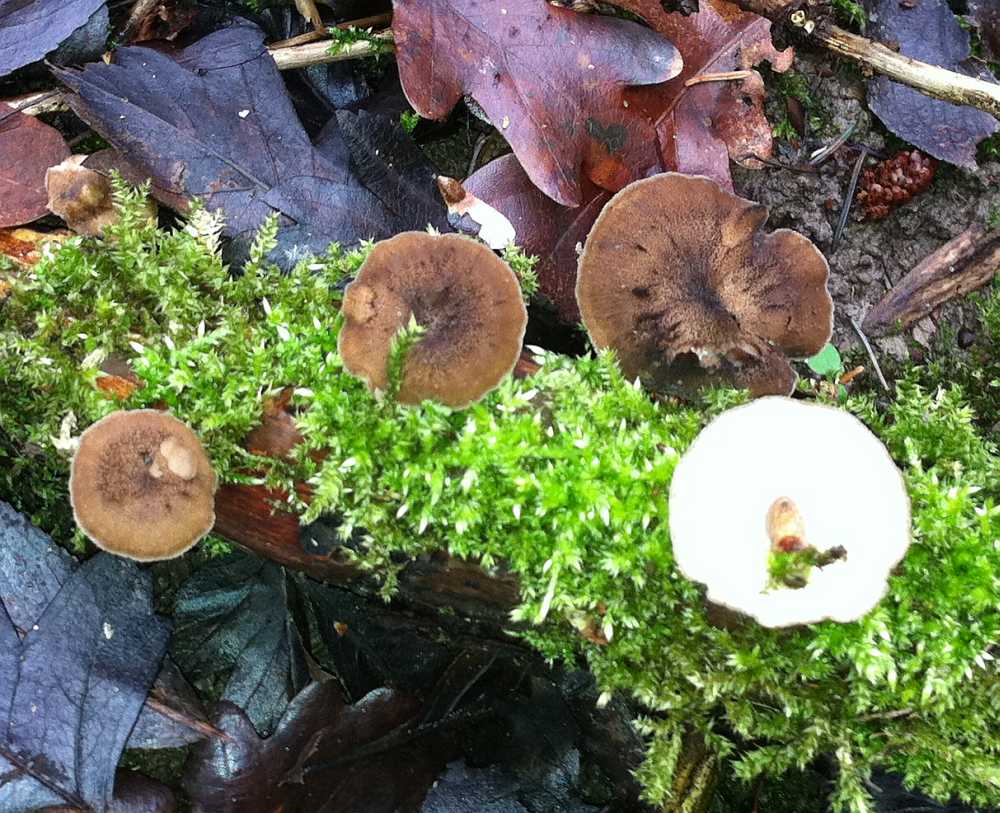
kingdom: Fungi
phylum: Basidiomycota
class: Agaricomycetes
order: Polyporales
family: Polyporaceae
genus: Lentinus
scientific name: Lentinus brumalis
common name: vinter-stilkporesvamp
